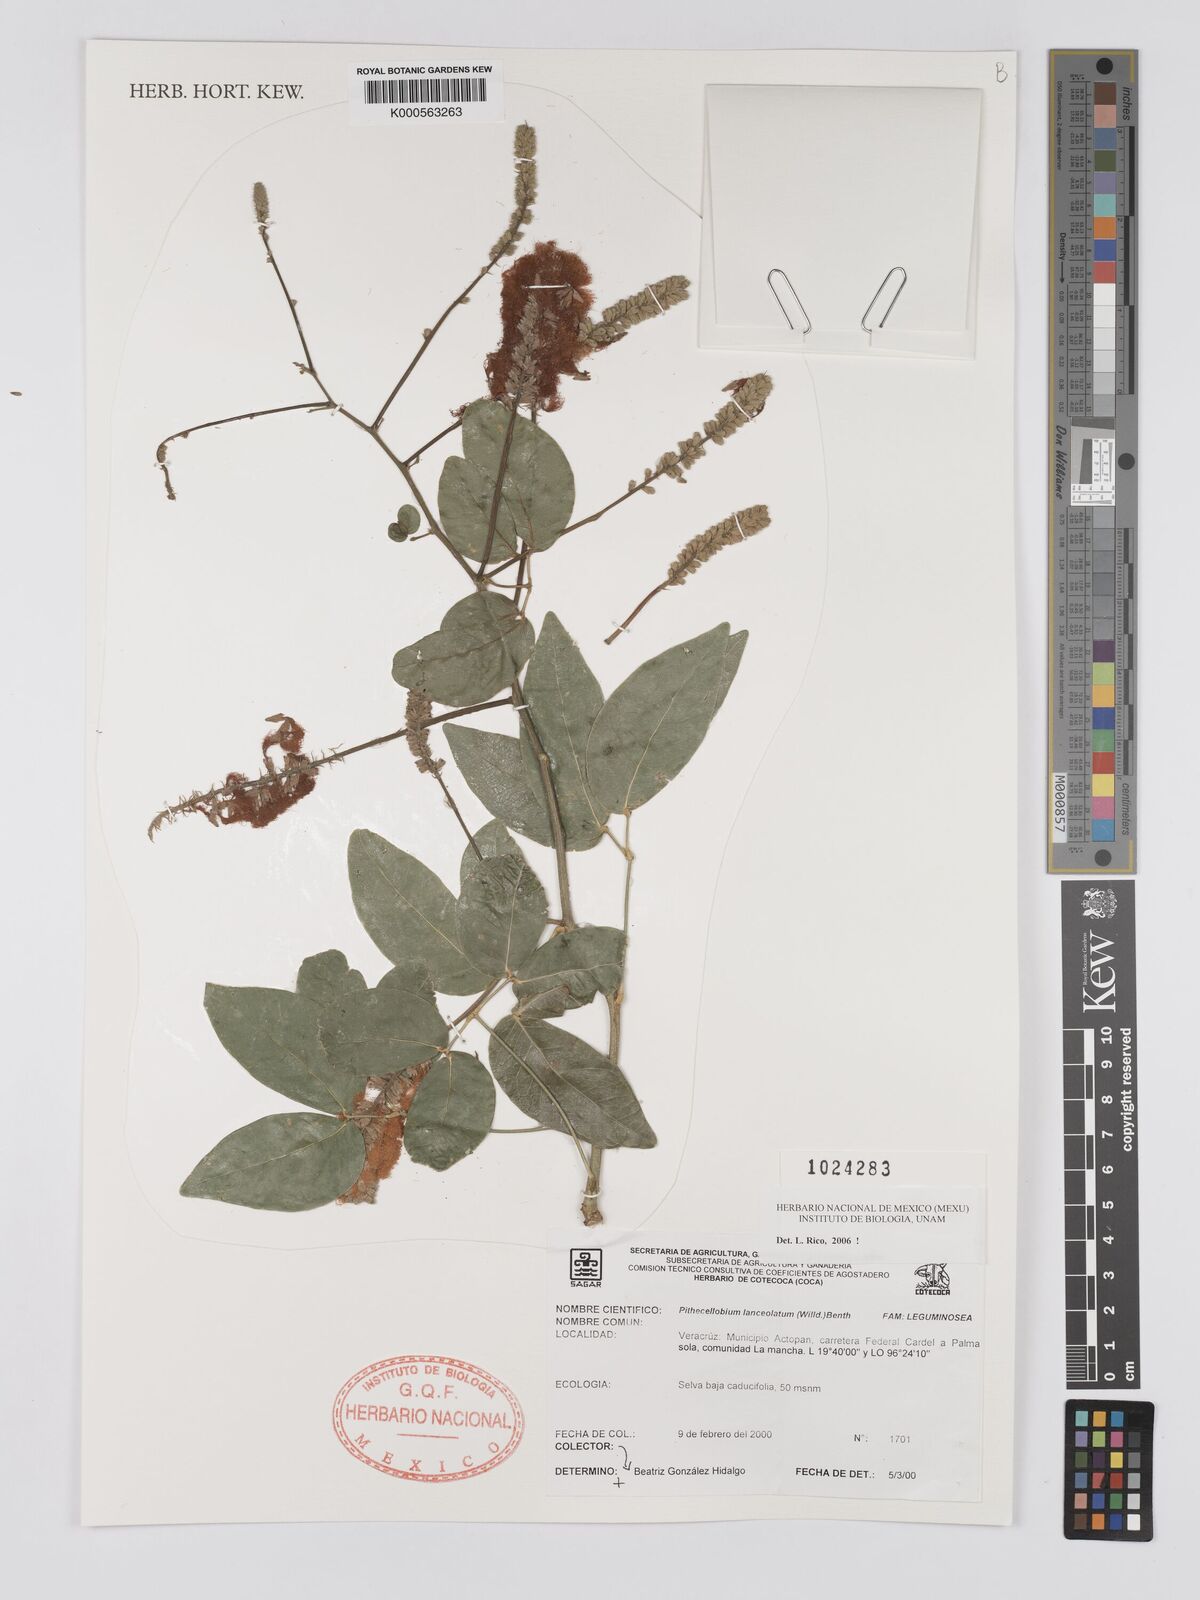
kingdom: Plantae
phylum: Tracheophyta
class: Magnoliopsida
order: Fabales
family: Fabaceae
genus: Pithecellobium
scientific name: Pithecellobium lanceolatum
